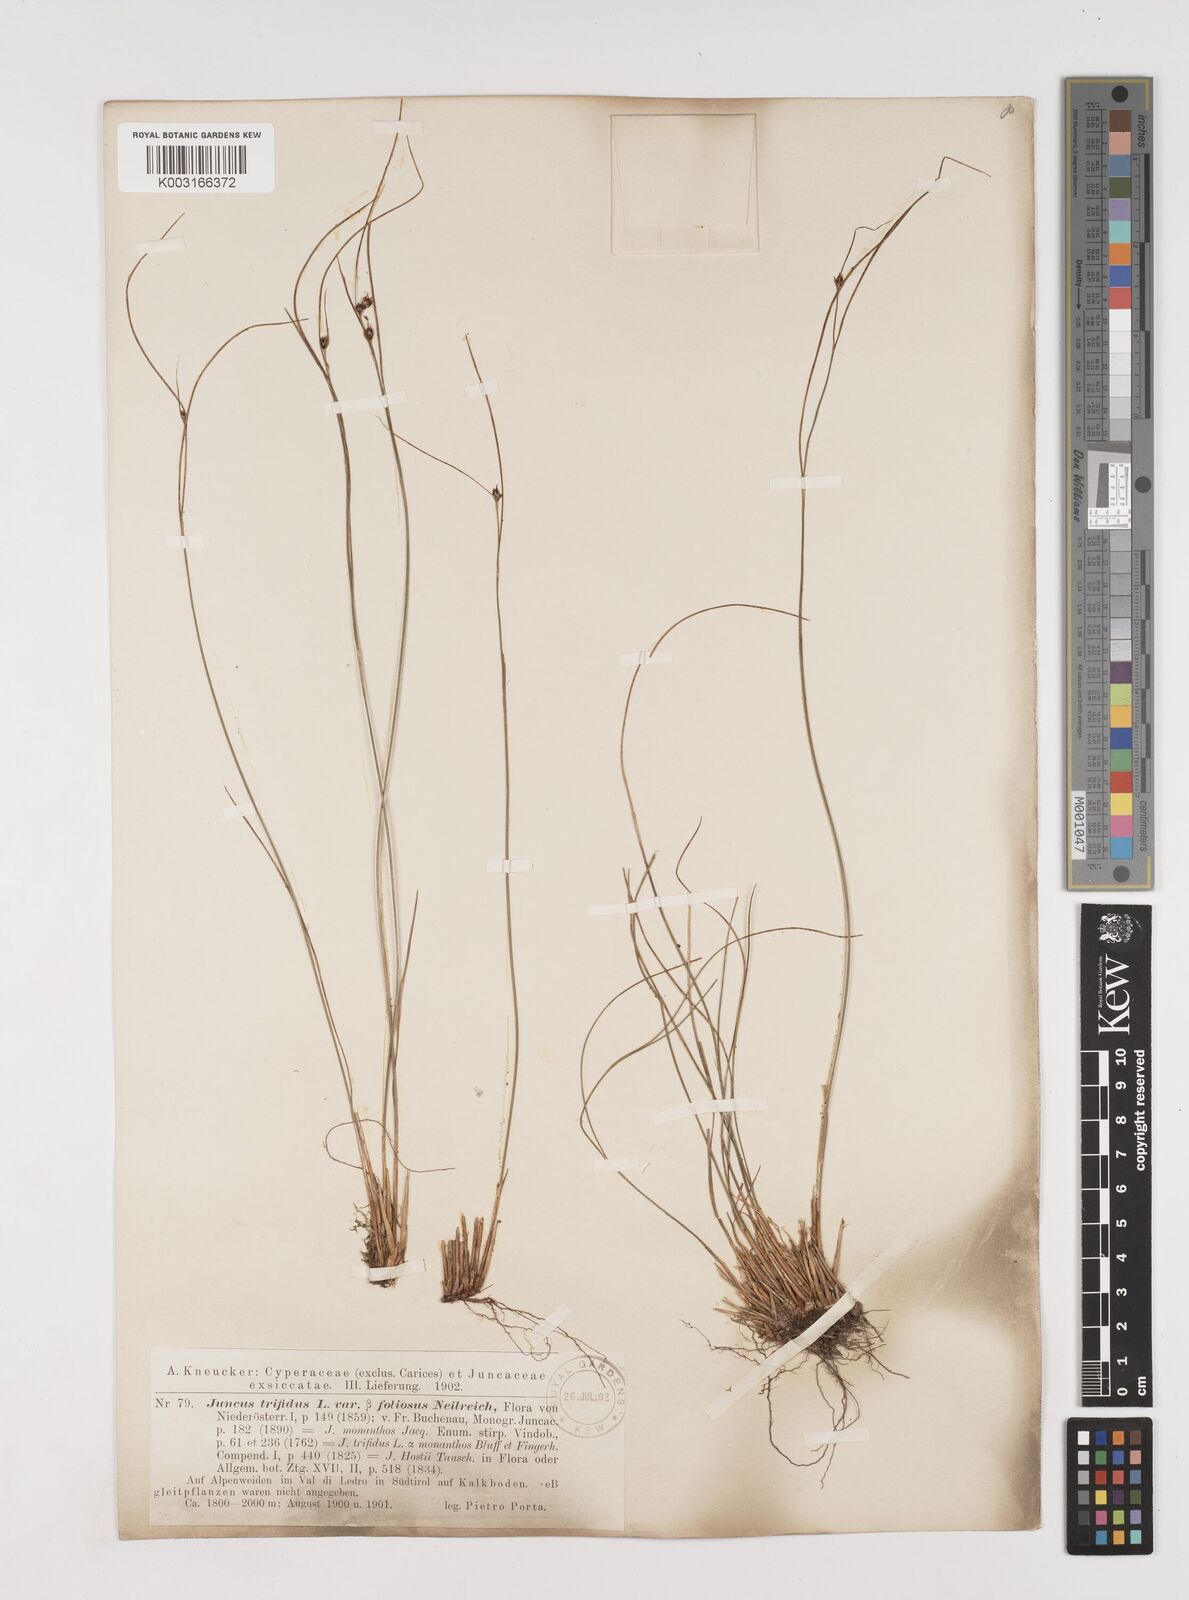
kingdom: Plantae
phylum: Tracheophyta
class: Liliopsida
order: Poales
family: Juncaceae
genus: Oreojuncus
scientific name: Oreojuncus trifidus
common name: Highland rush
